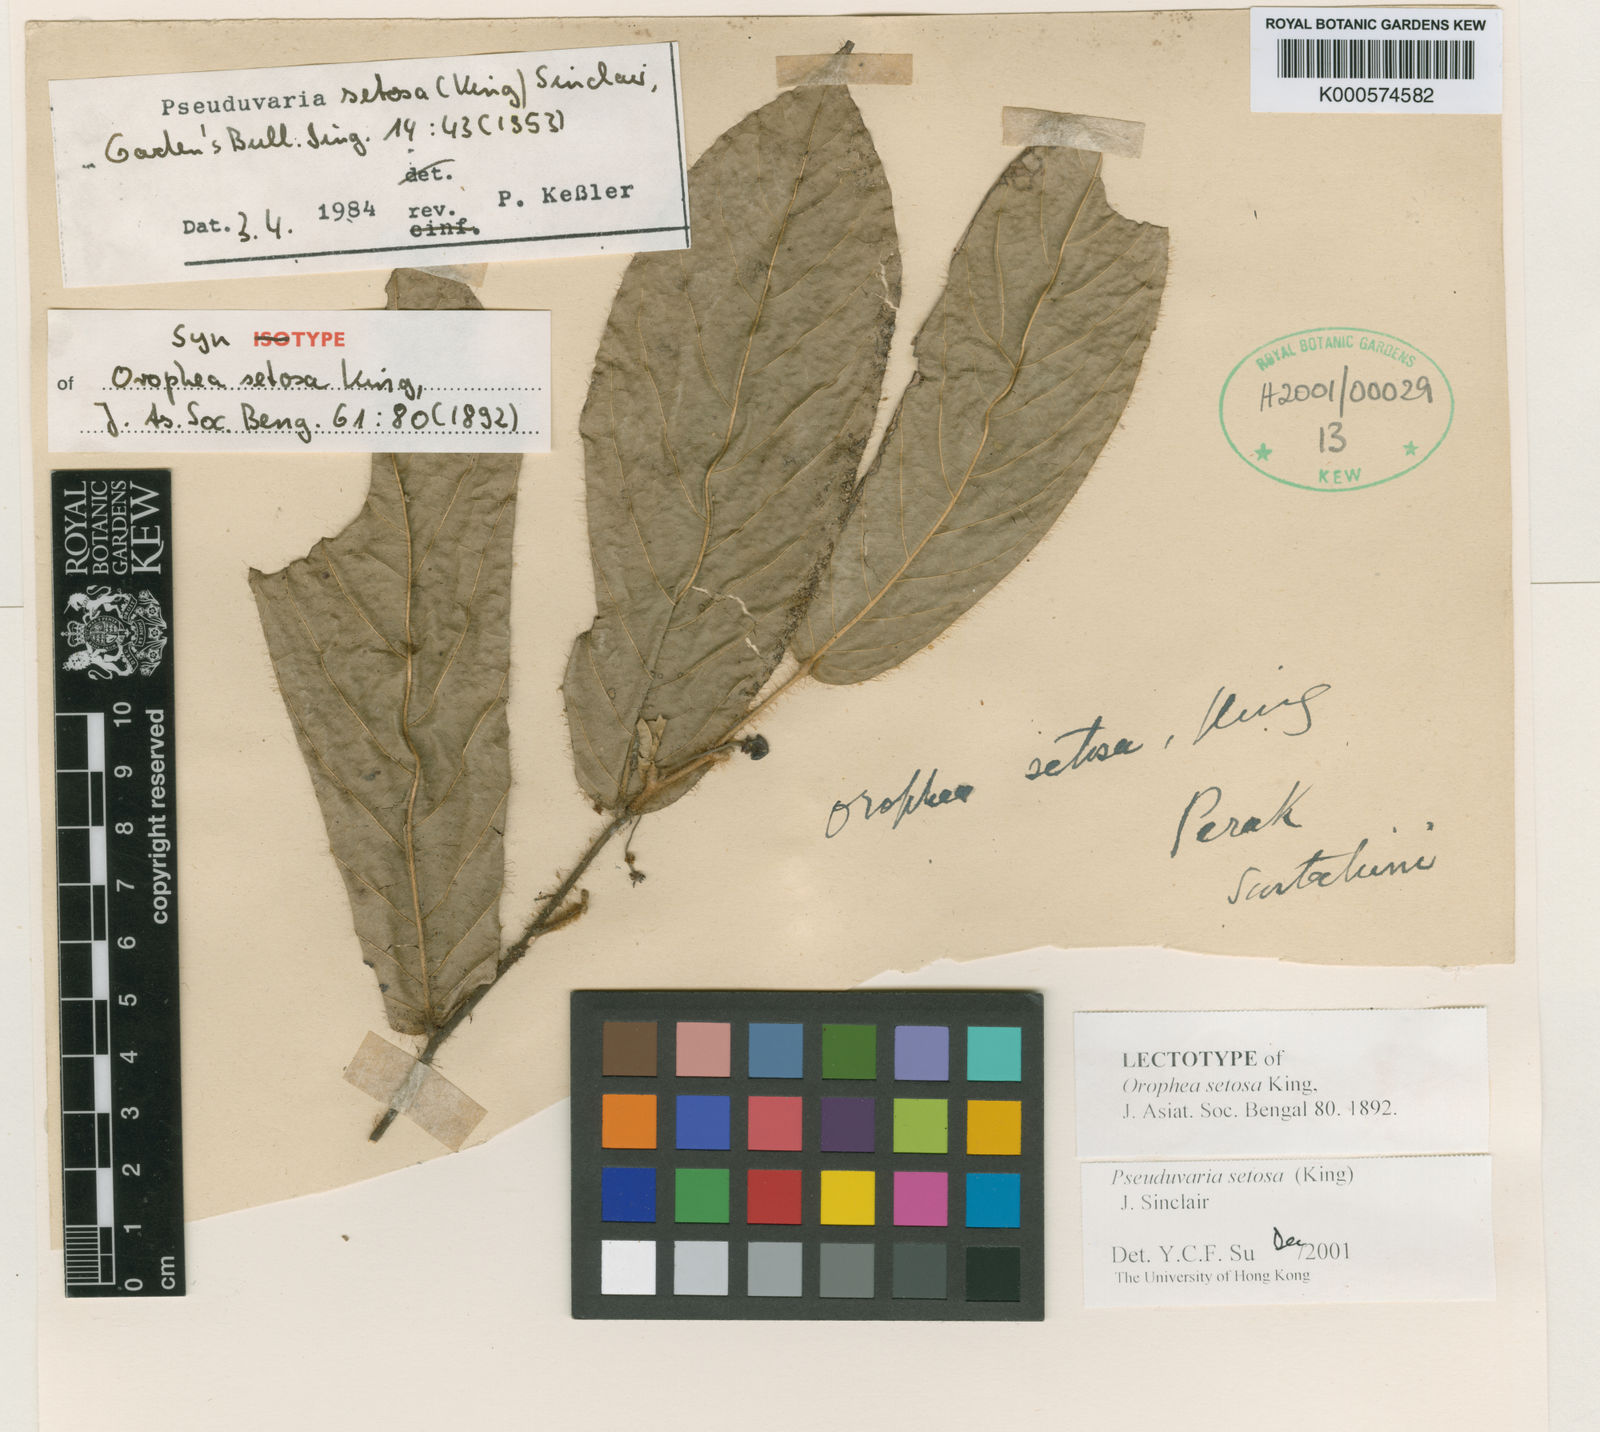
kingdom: Plantae
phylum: Tracheophyta
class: Magnoliopsida
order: Magnoliales
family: Annonaceae
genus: Pseuduvaria
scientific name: Pseuduvaria setosa
